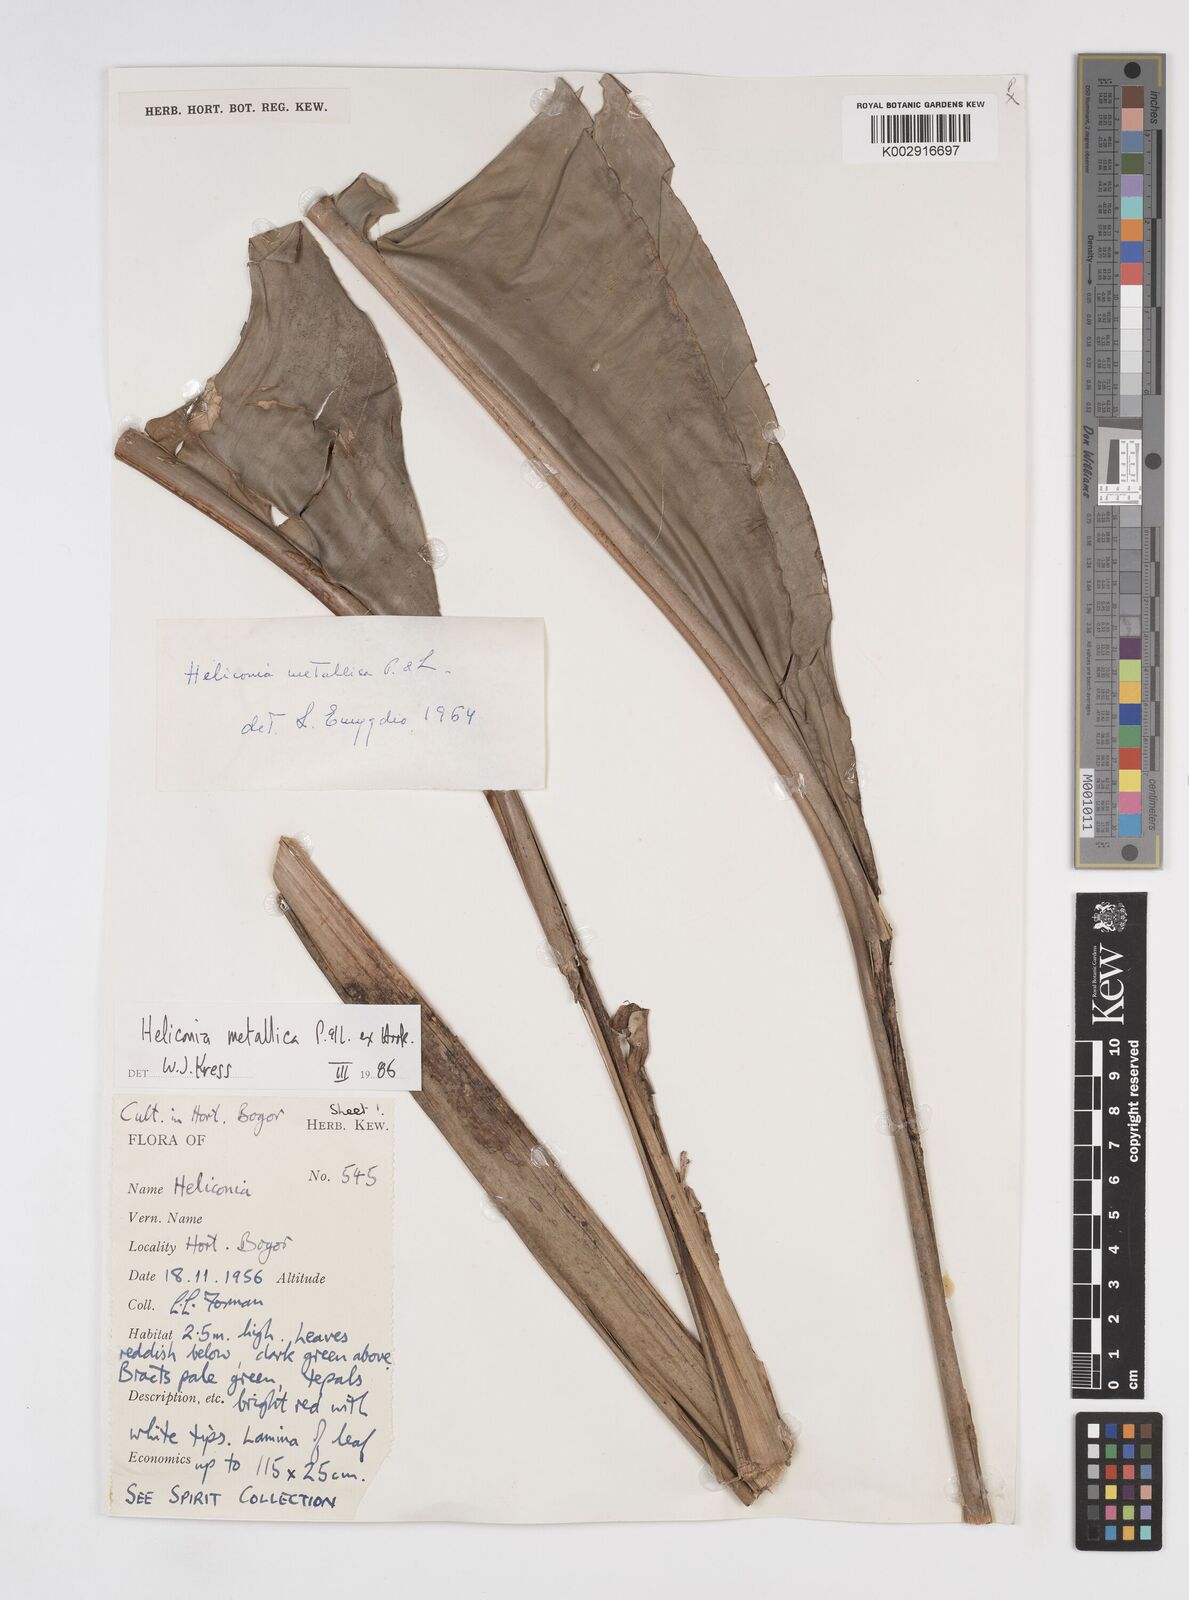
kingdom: Plantae
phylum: Tracheophyta
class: Liliopsida
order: Zingiberales
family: Heliconiaceae
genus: Heliconia
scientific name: Heliconia metallica
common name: Shining bird of paradise
